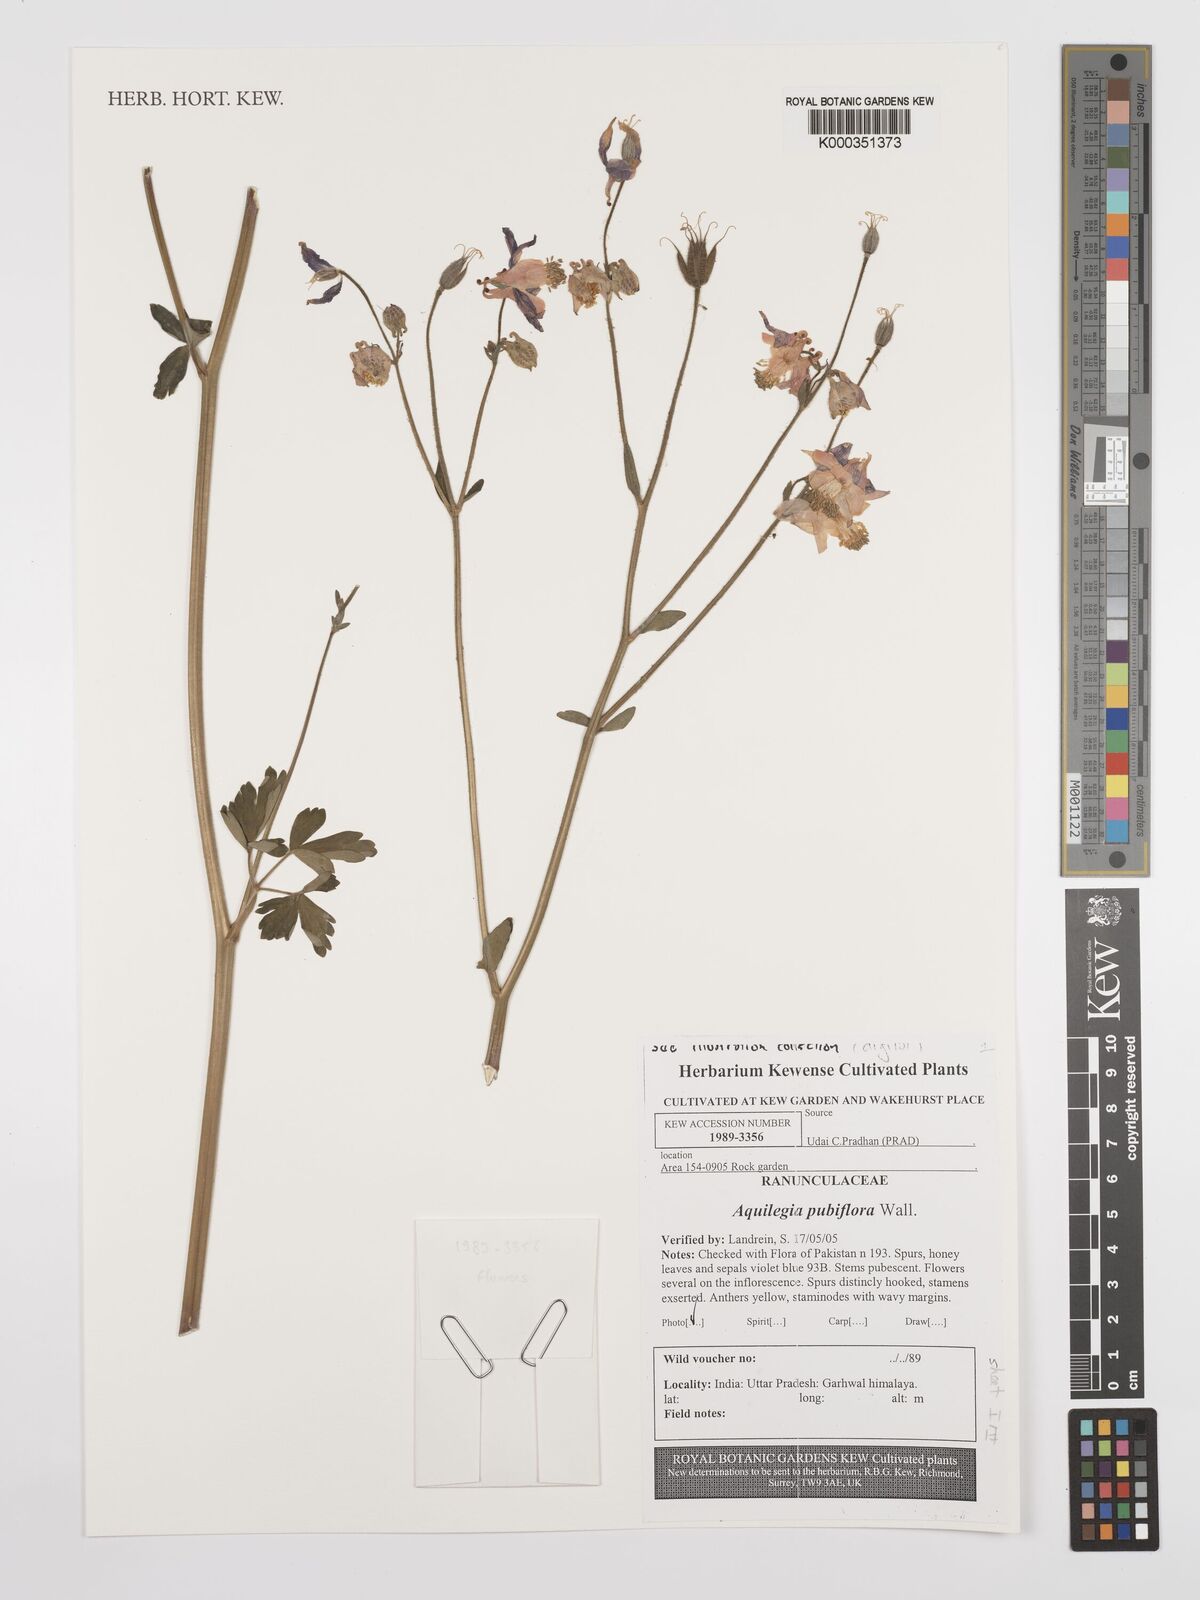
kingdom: Plantae
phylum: Tracheophyta
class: Magnoliopsida
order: Ranunculales
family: Ranunculaceae
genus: Aquilegia
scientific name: Aquilegia
